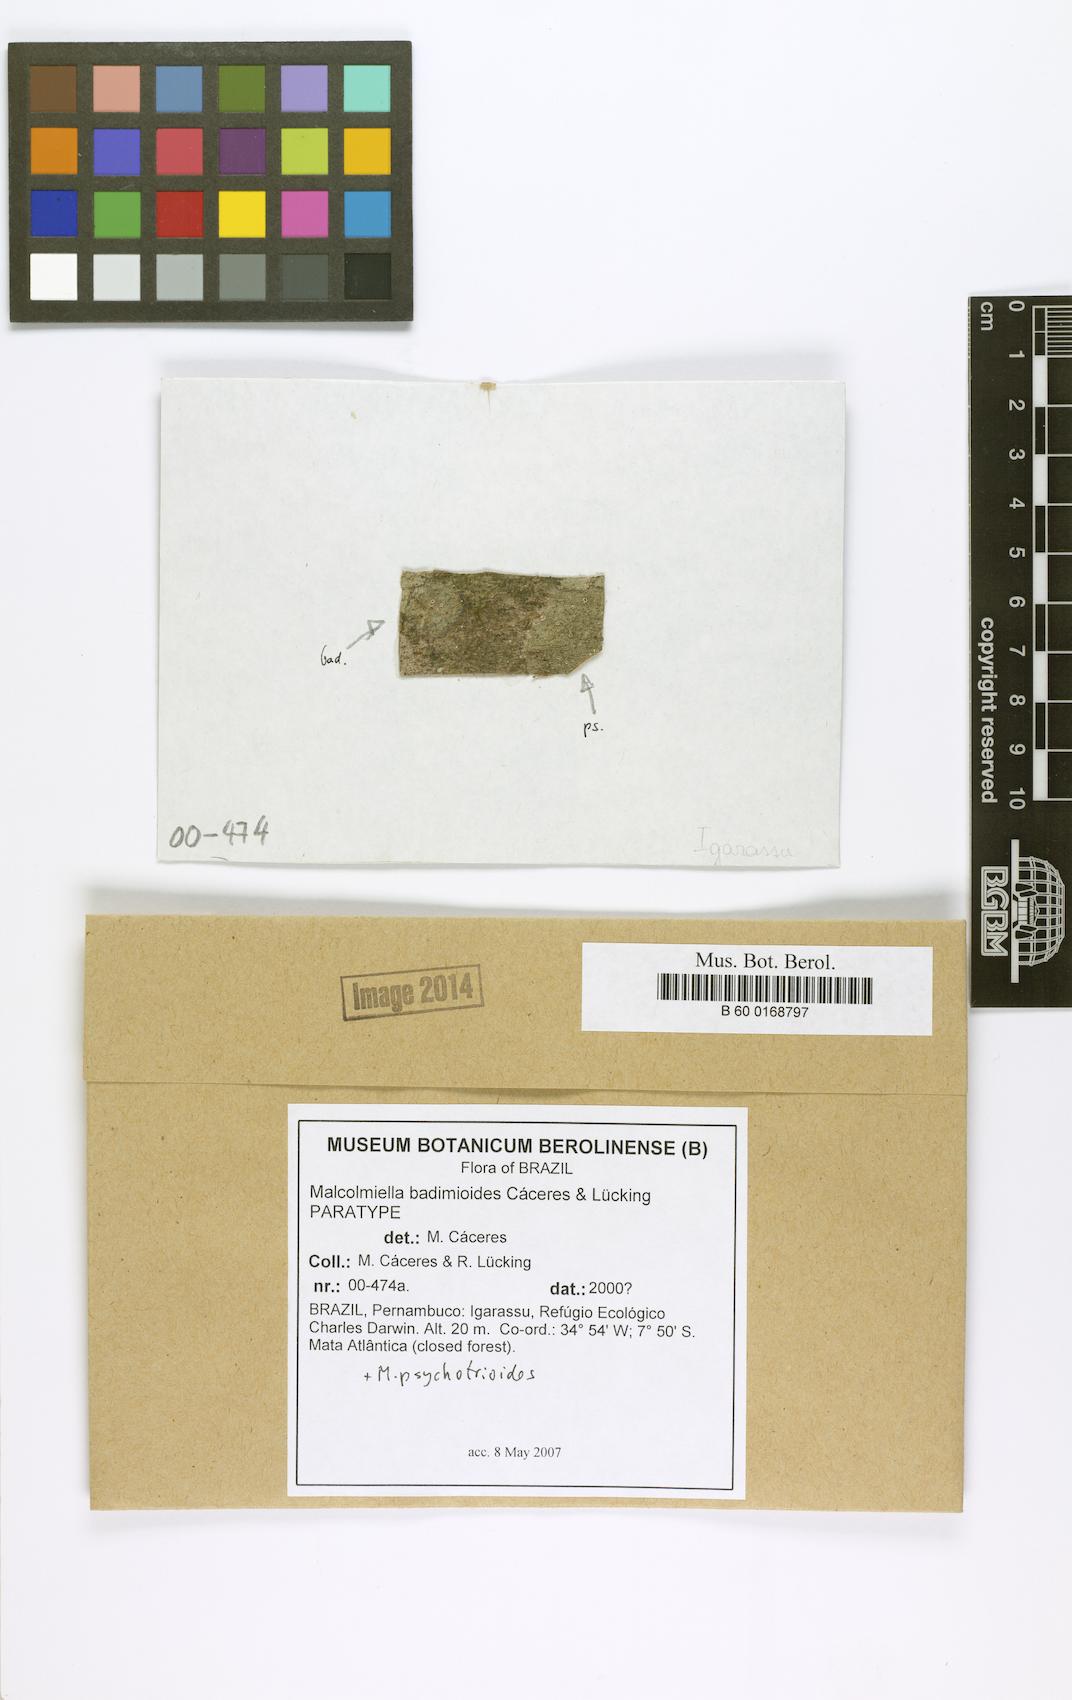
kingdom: Fungi
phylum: Ascomycota
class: Lecanoromycetes
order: Lecanorales
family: Malmideaceae
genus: Malmidea
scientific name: Malmidea badimioides
